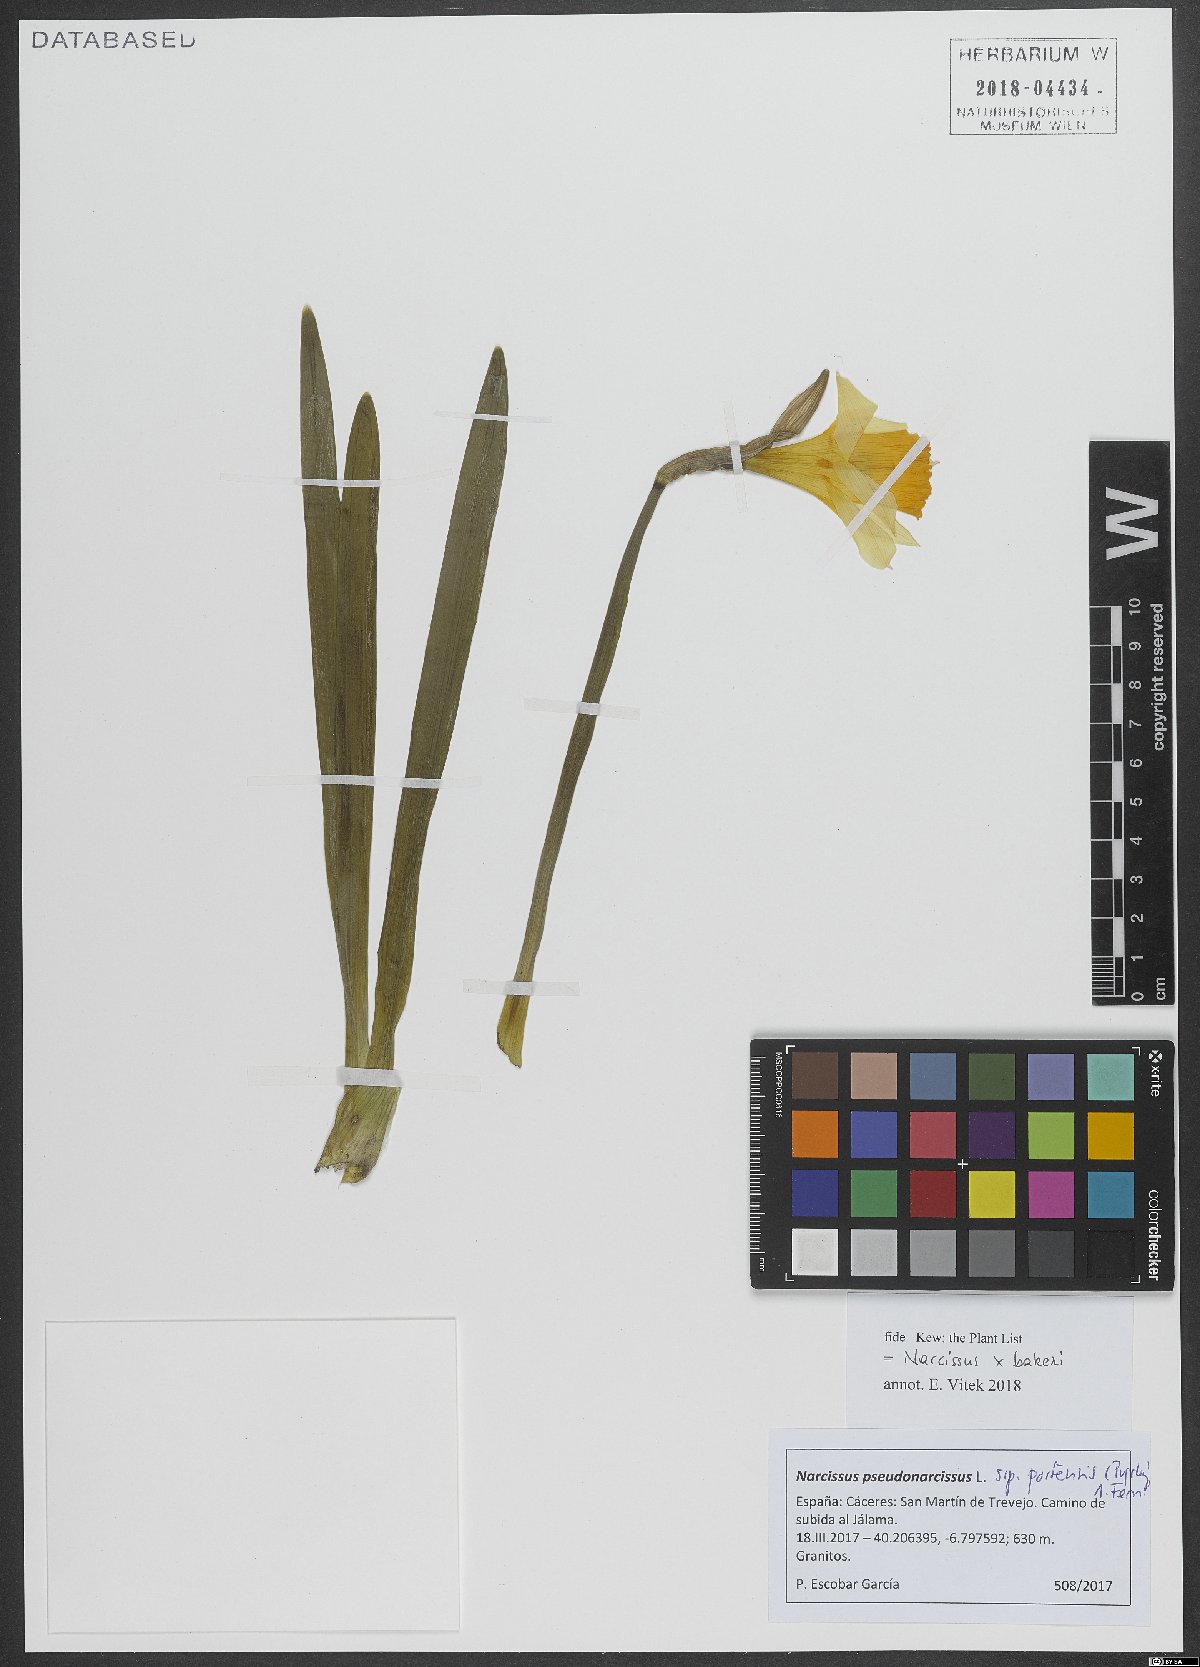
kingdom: Plantae
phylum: Tracheophyta
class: Liliopsida
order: Asparagales
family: Amaryllidaceae
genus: Narcissus
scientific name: Narcissus bakeri
